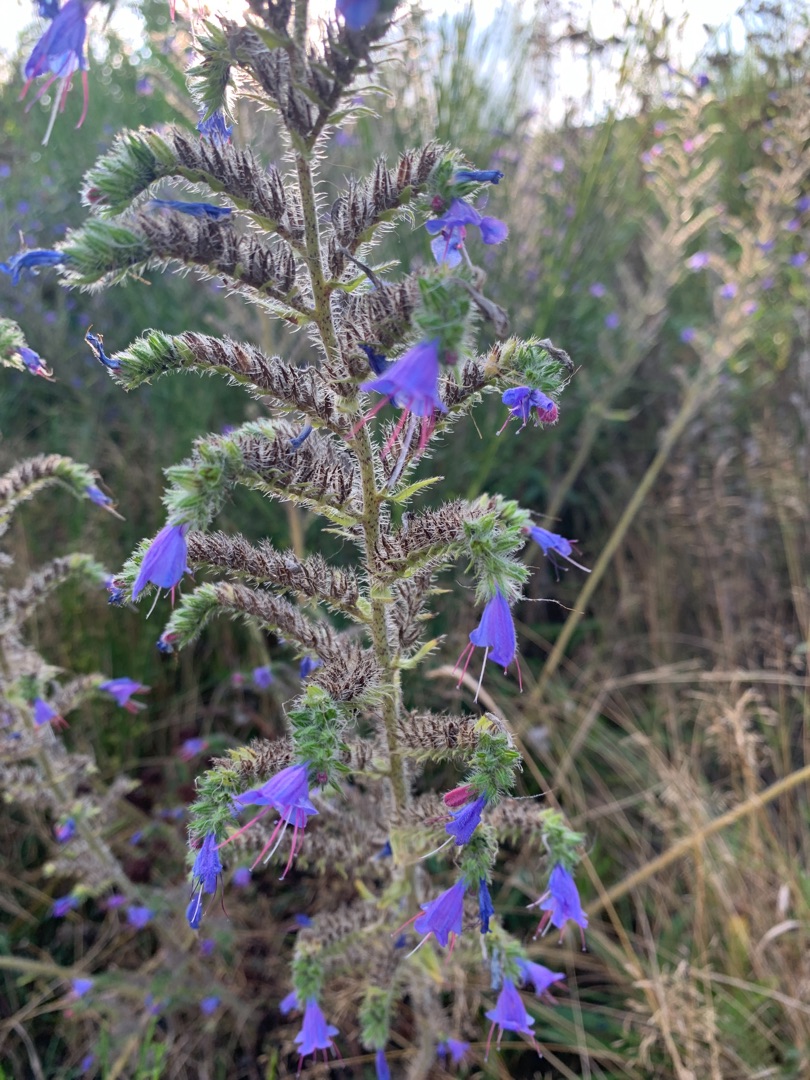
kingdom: Plantae
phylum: Tracheophyta
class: Magnoliopsida
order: Boraginales
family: Boraginaceae
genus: Echium
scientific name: Echium vulgare
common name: Slangehoved
